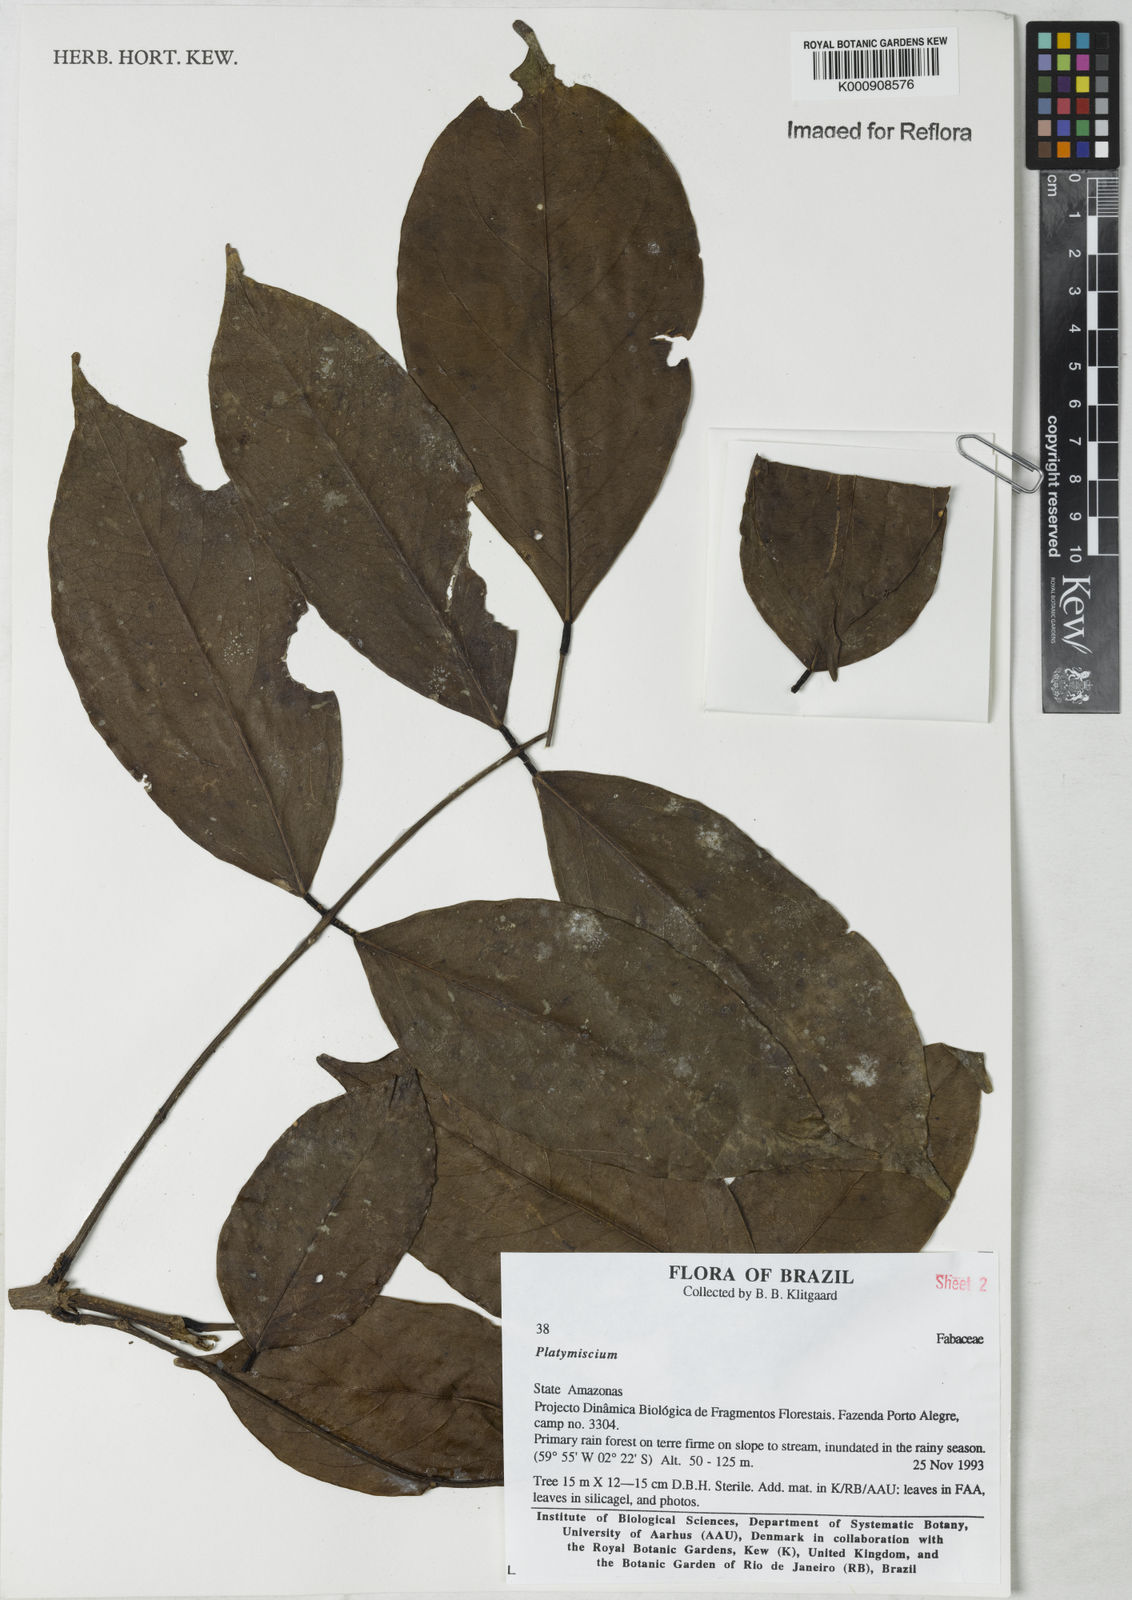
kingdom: Plantae
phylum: Tracheophyta
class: Magnoliopsida
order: Fabales
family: Fabaceae
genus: Platymiscium
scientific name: Platymiscium
